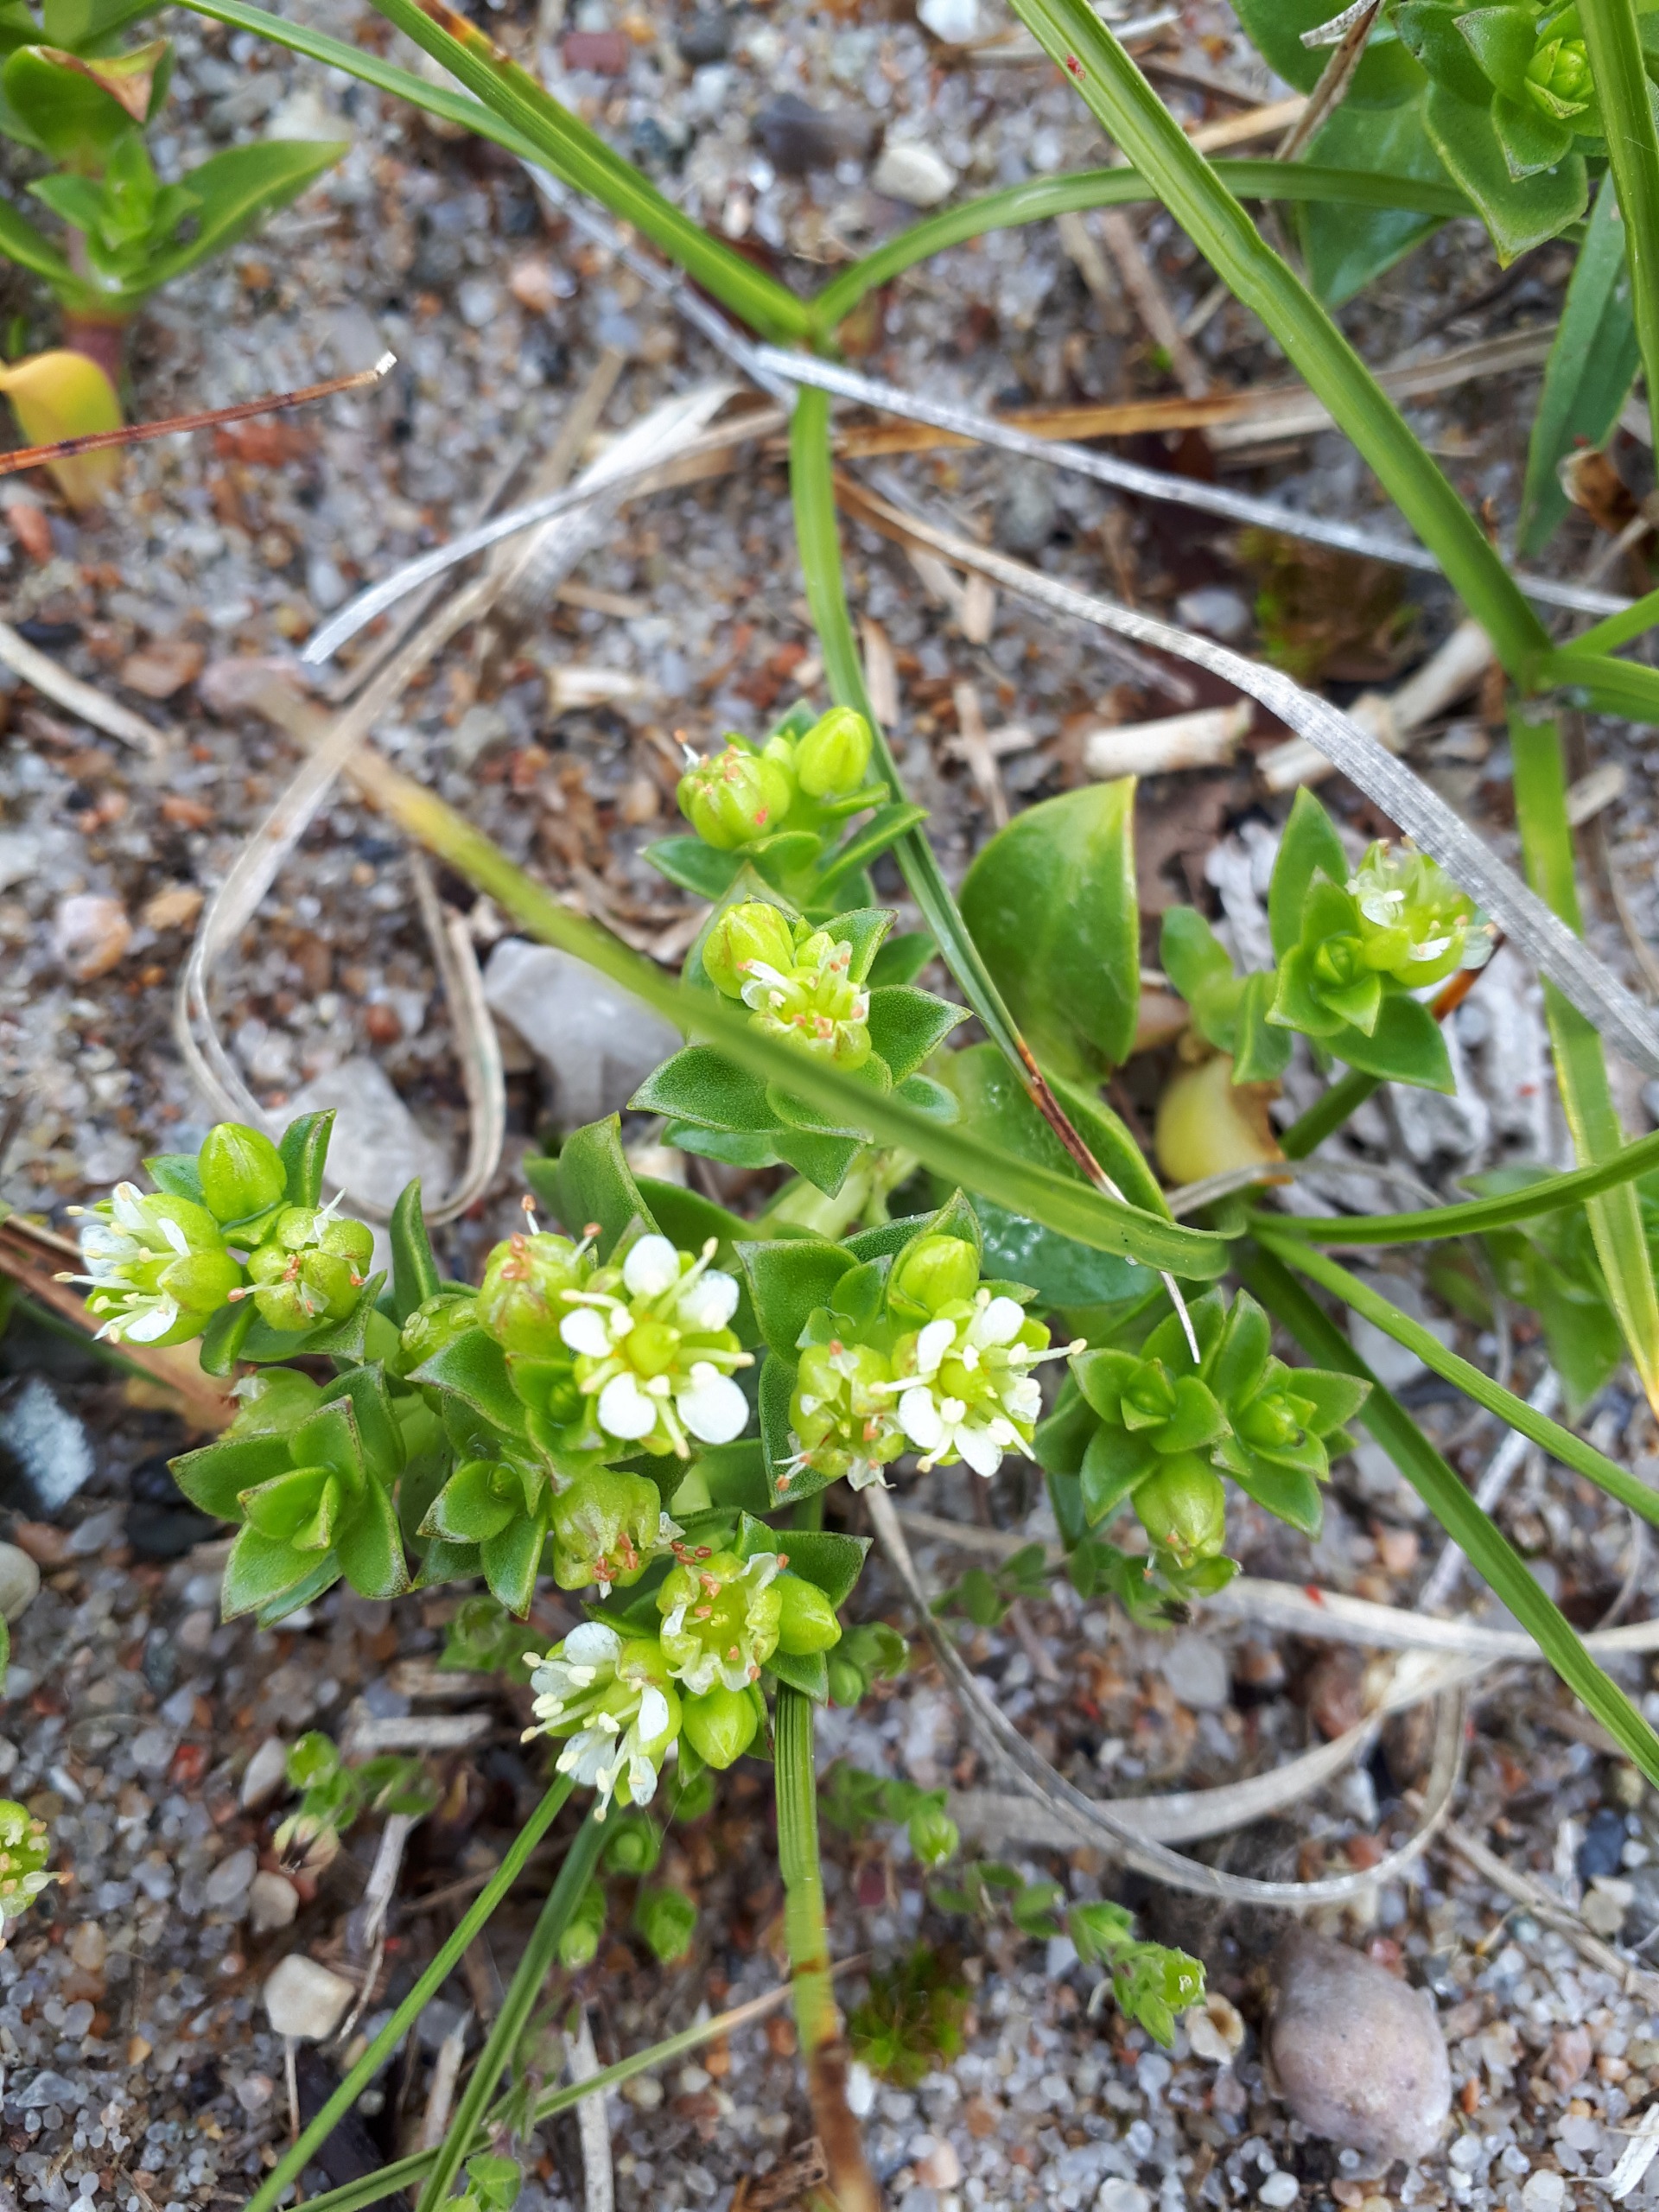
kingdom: Plantae
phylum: Tracheophyta
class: Magnoliopsida
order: Caryophyllales
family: Caryophyllaceae
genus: Honckenya
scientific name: Honckenya peploides
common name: Strandarve
